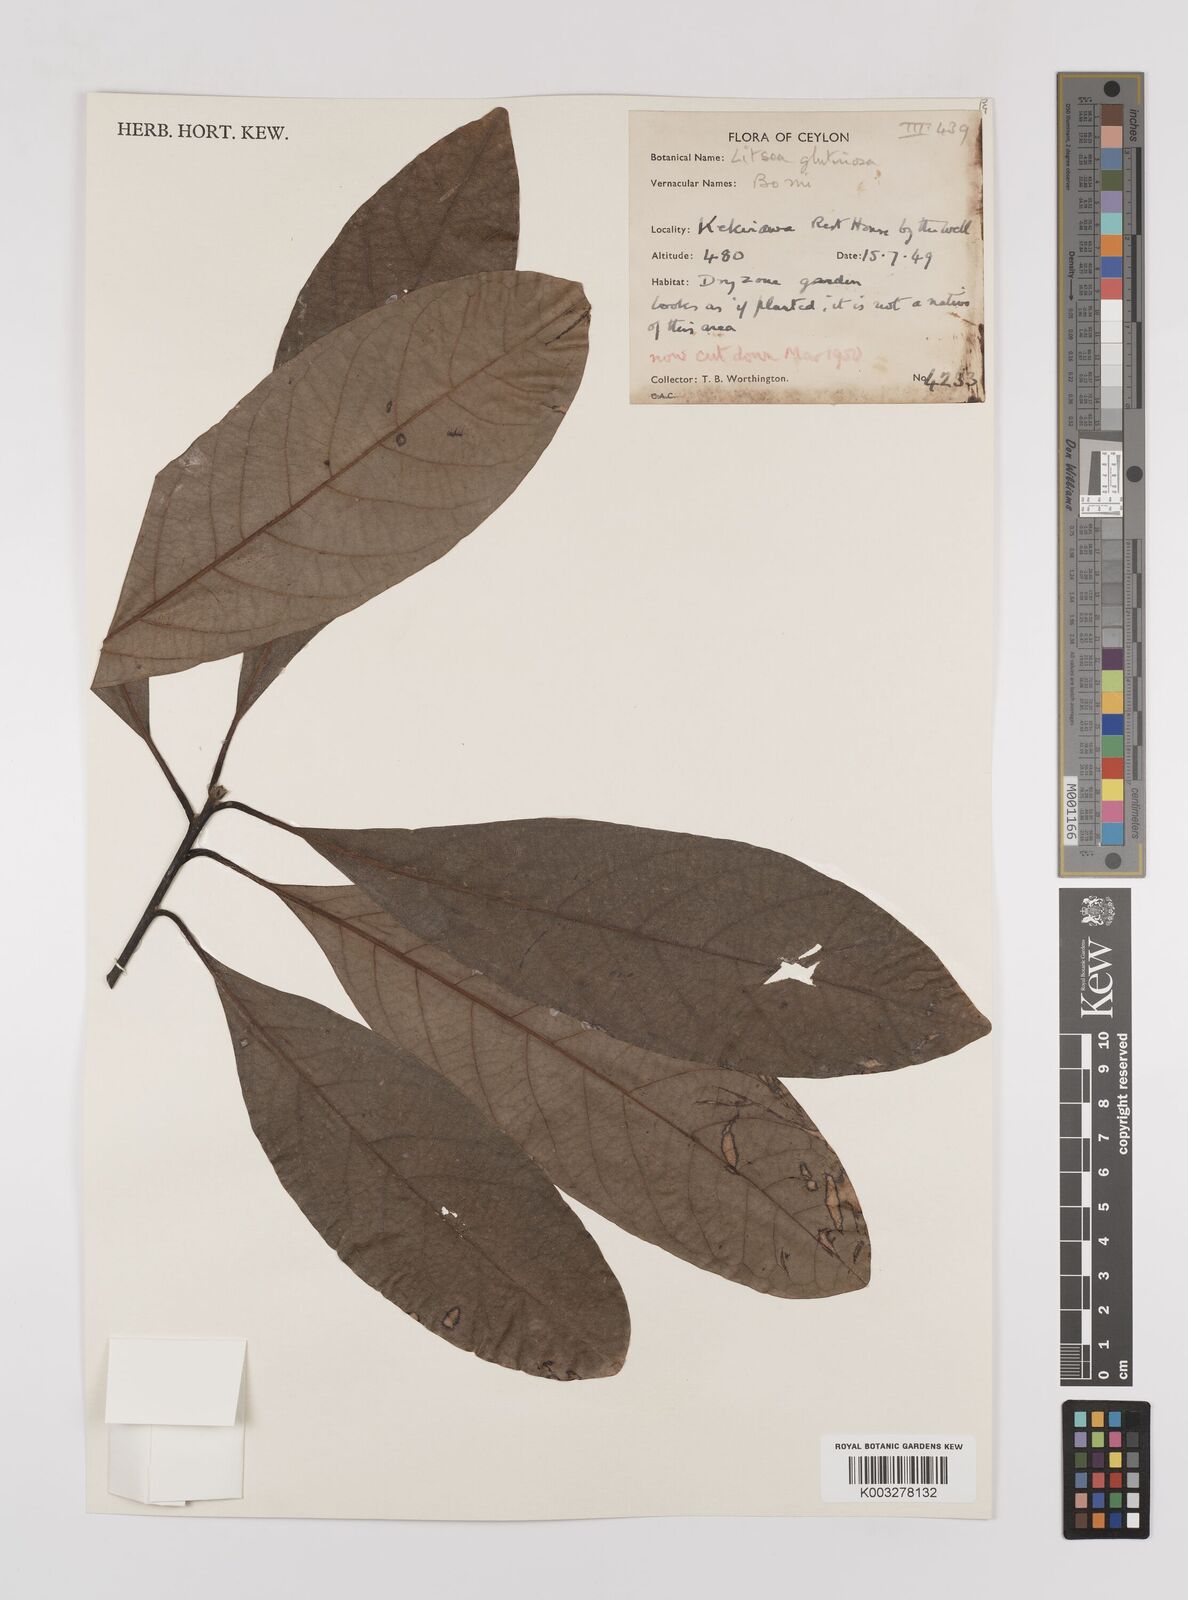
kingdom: Plantae
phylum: Tracheophyta
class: Magnoliopsida
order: Laurales
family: Lauraceae
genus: Litsea
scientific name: Litsea
